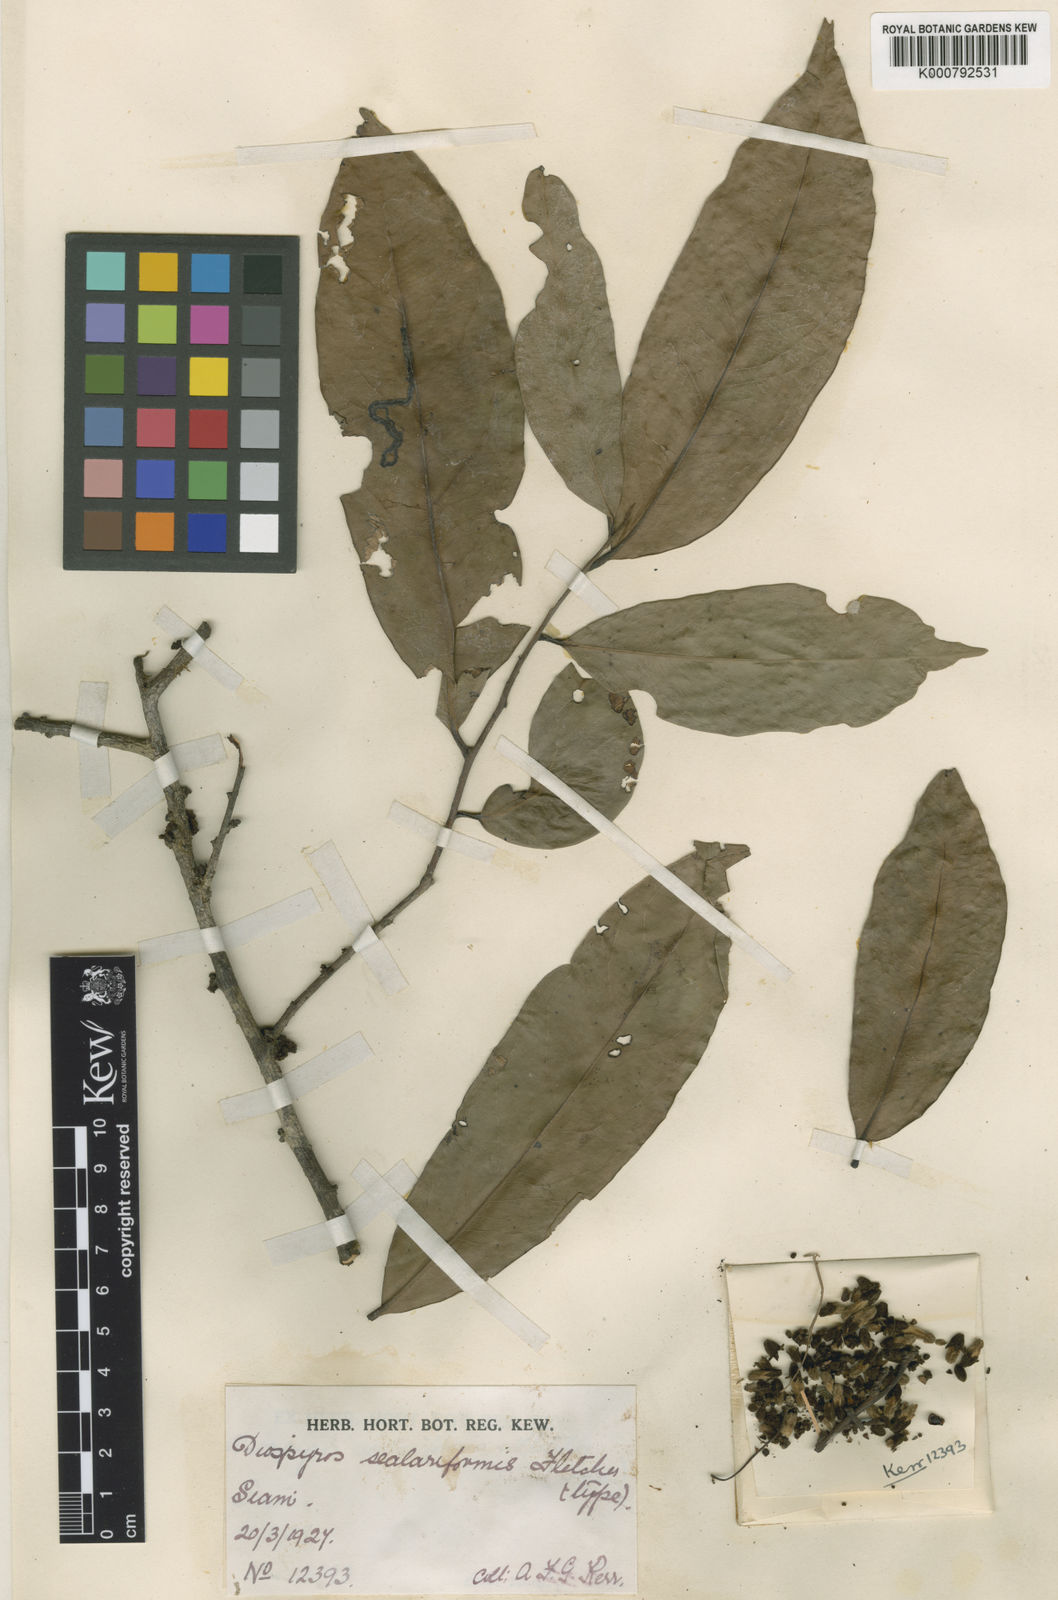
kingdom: Plantae
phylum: Tracheophyta
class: Magnoliopsida
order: Ericales
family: Ebenaceae
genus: Diospyros
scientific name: Diospyros scalariformis
